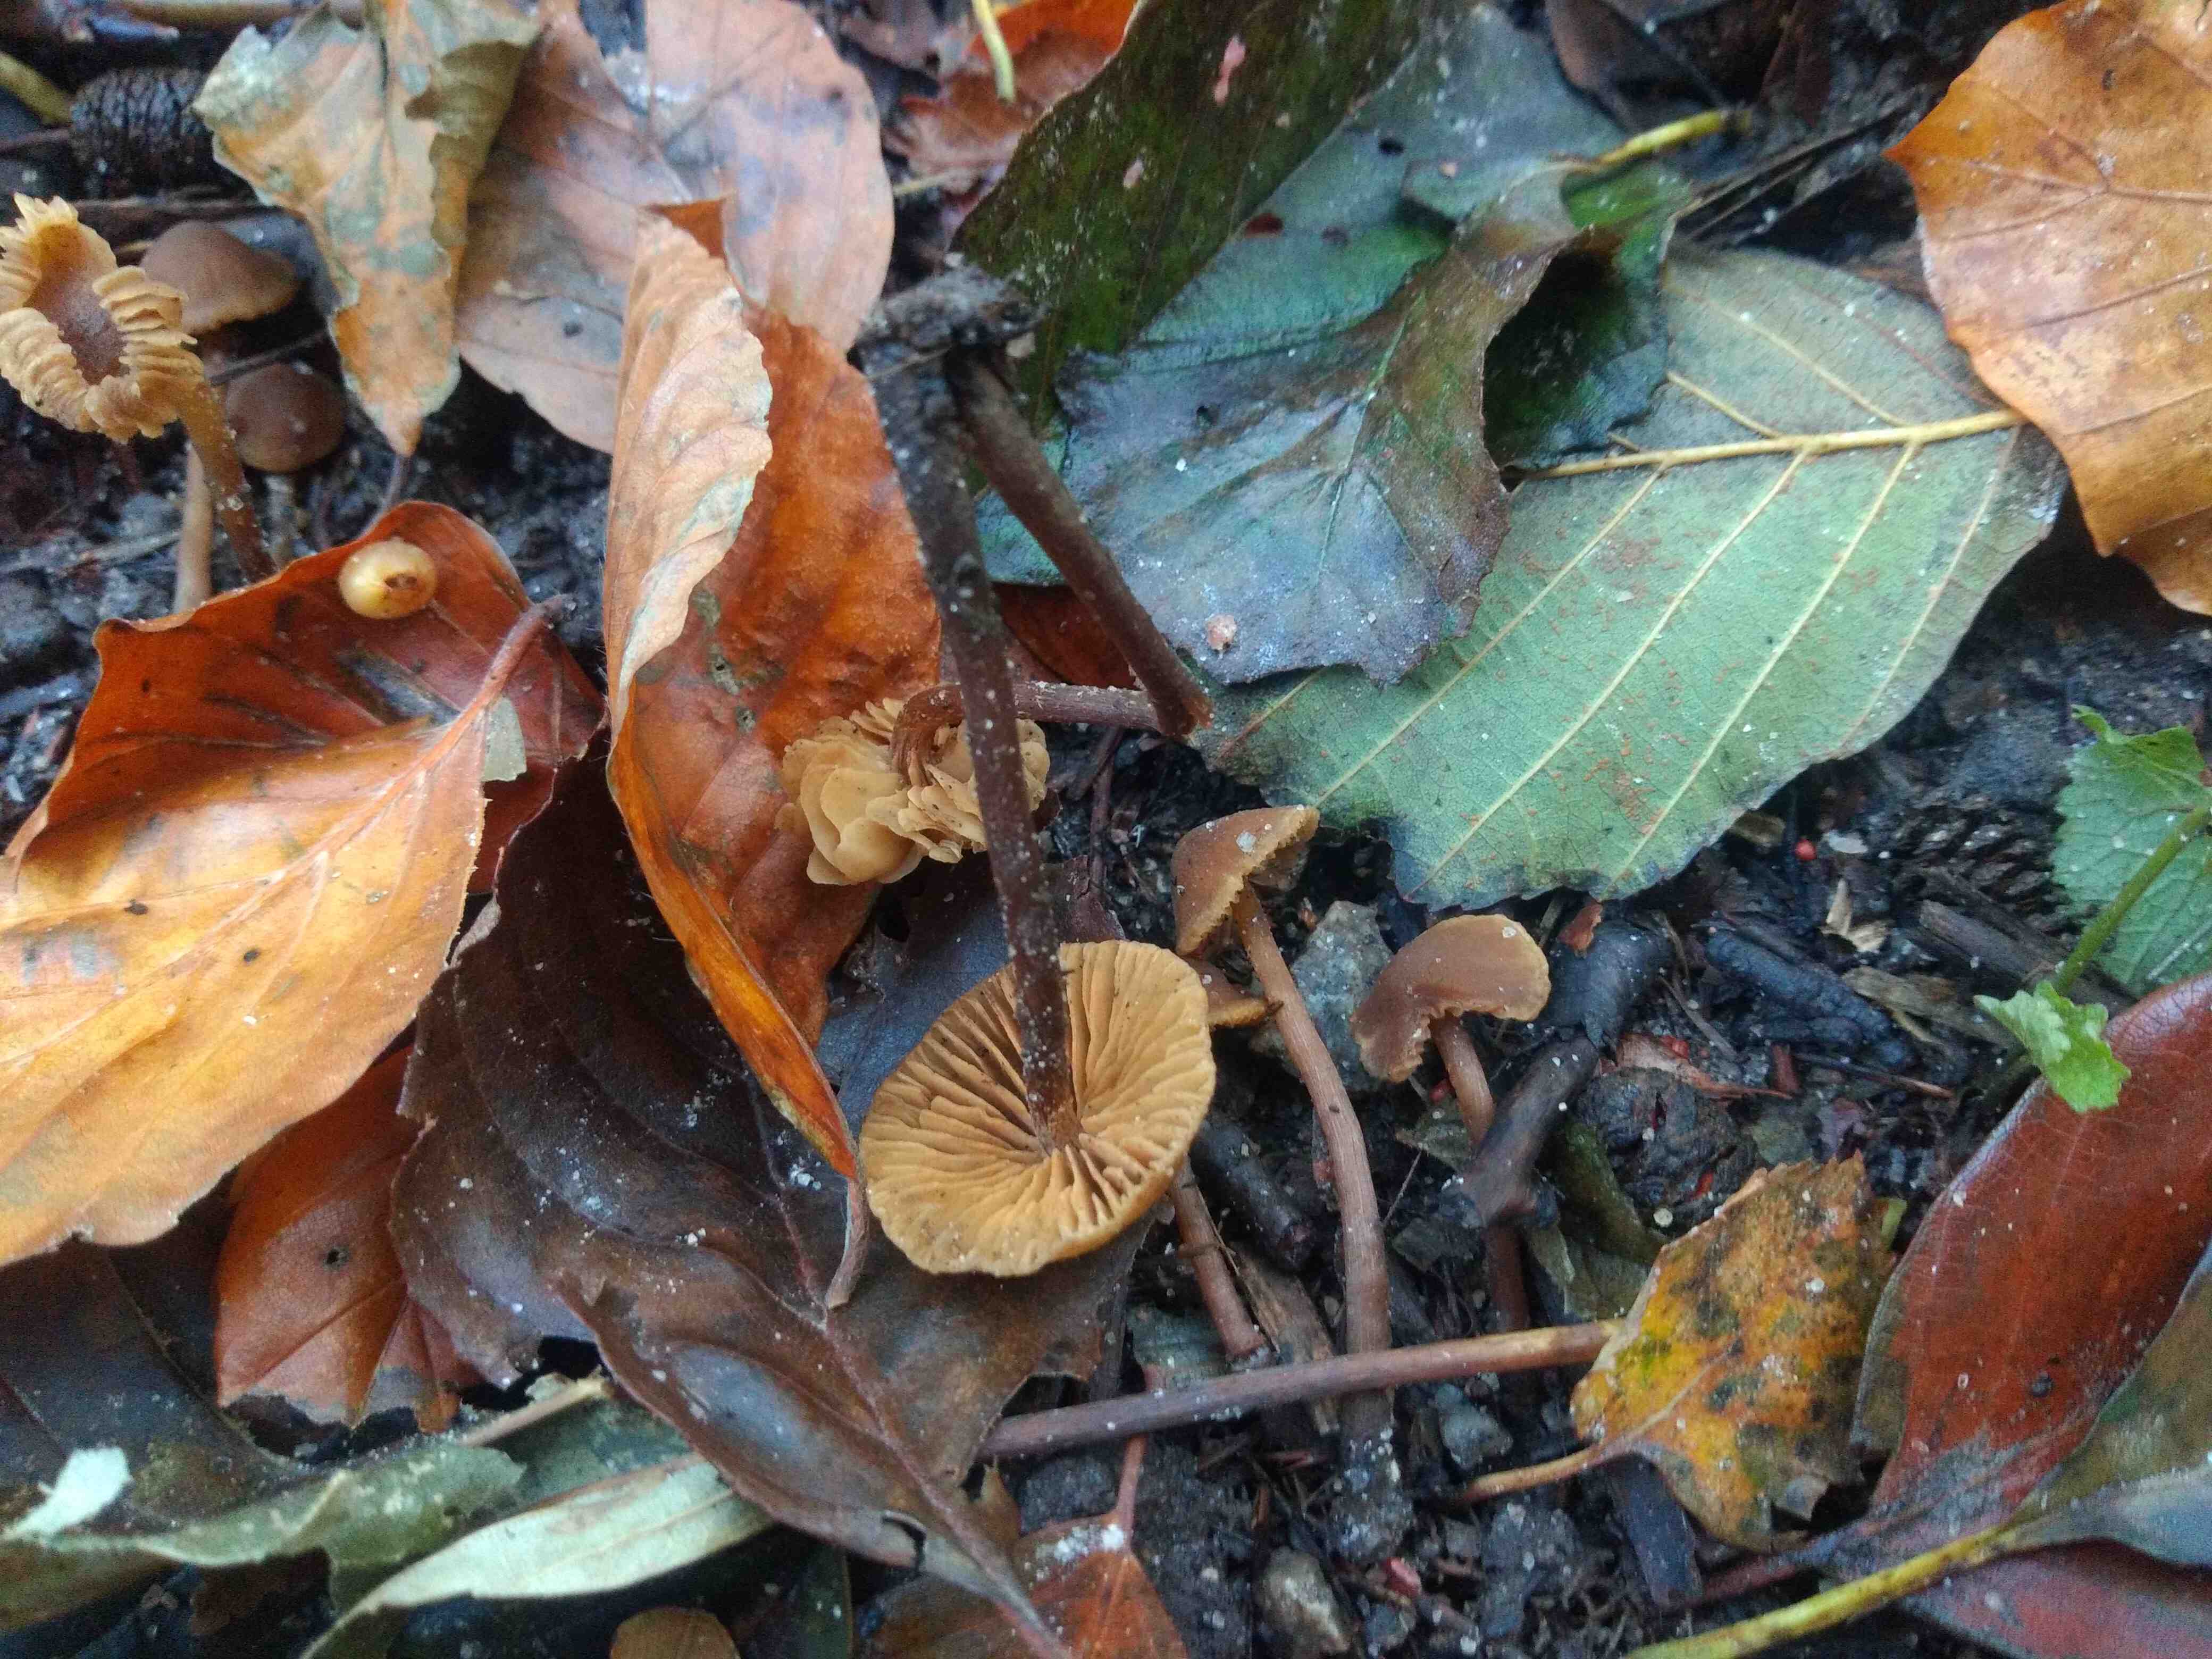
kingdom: Fungi
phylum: Basidiomycota
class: Agaricomycetes
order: Agaricales
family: Hymenogastraceae
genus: Naucoria
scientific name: Naucoria scolecina
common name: mørk elle-knaphat
